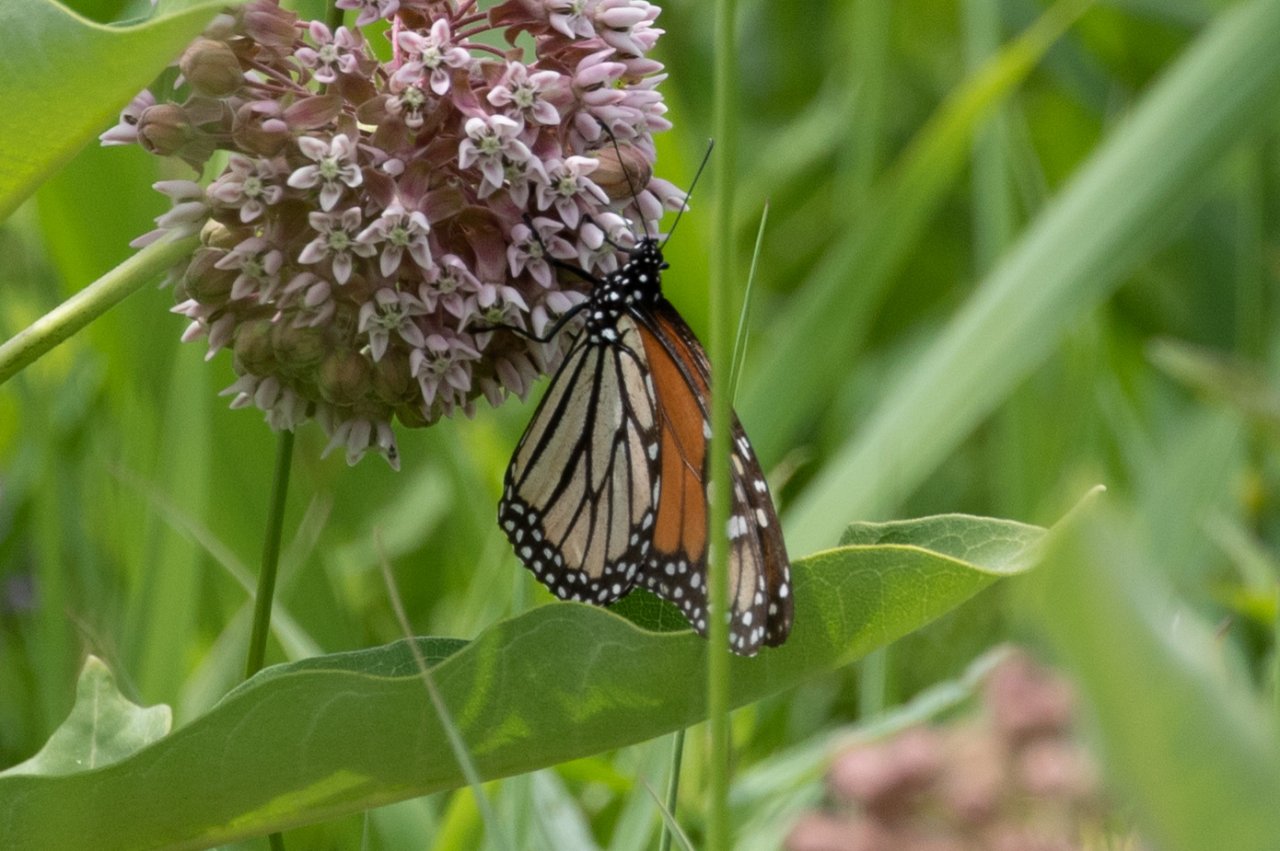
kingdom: Animalia
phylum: Arthropoda
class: Insecta
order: Lepidoptera
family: Nymphalidae
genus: Danaus
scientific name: Danaus plexippus
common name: Monarch
